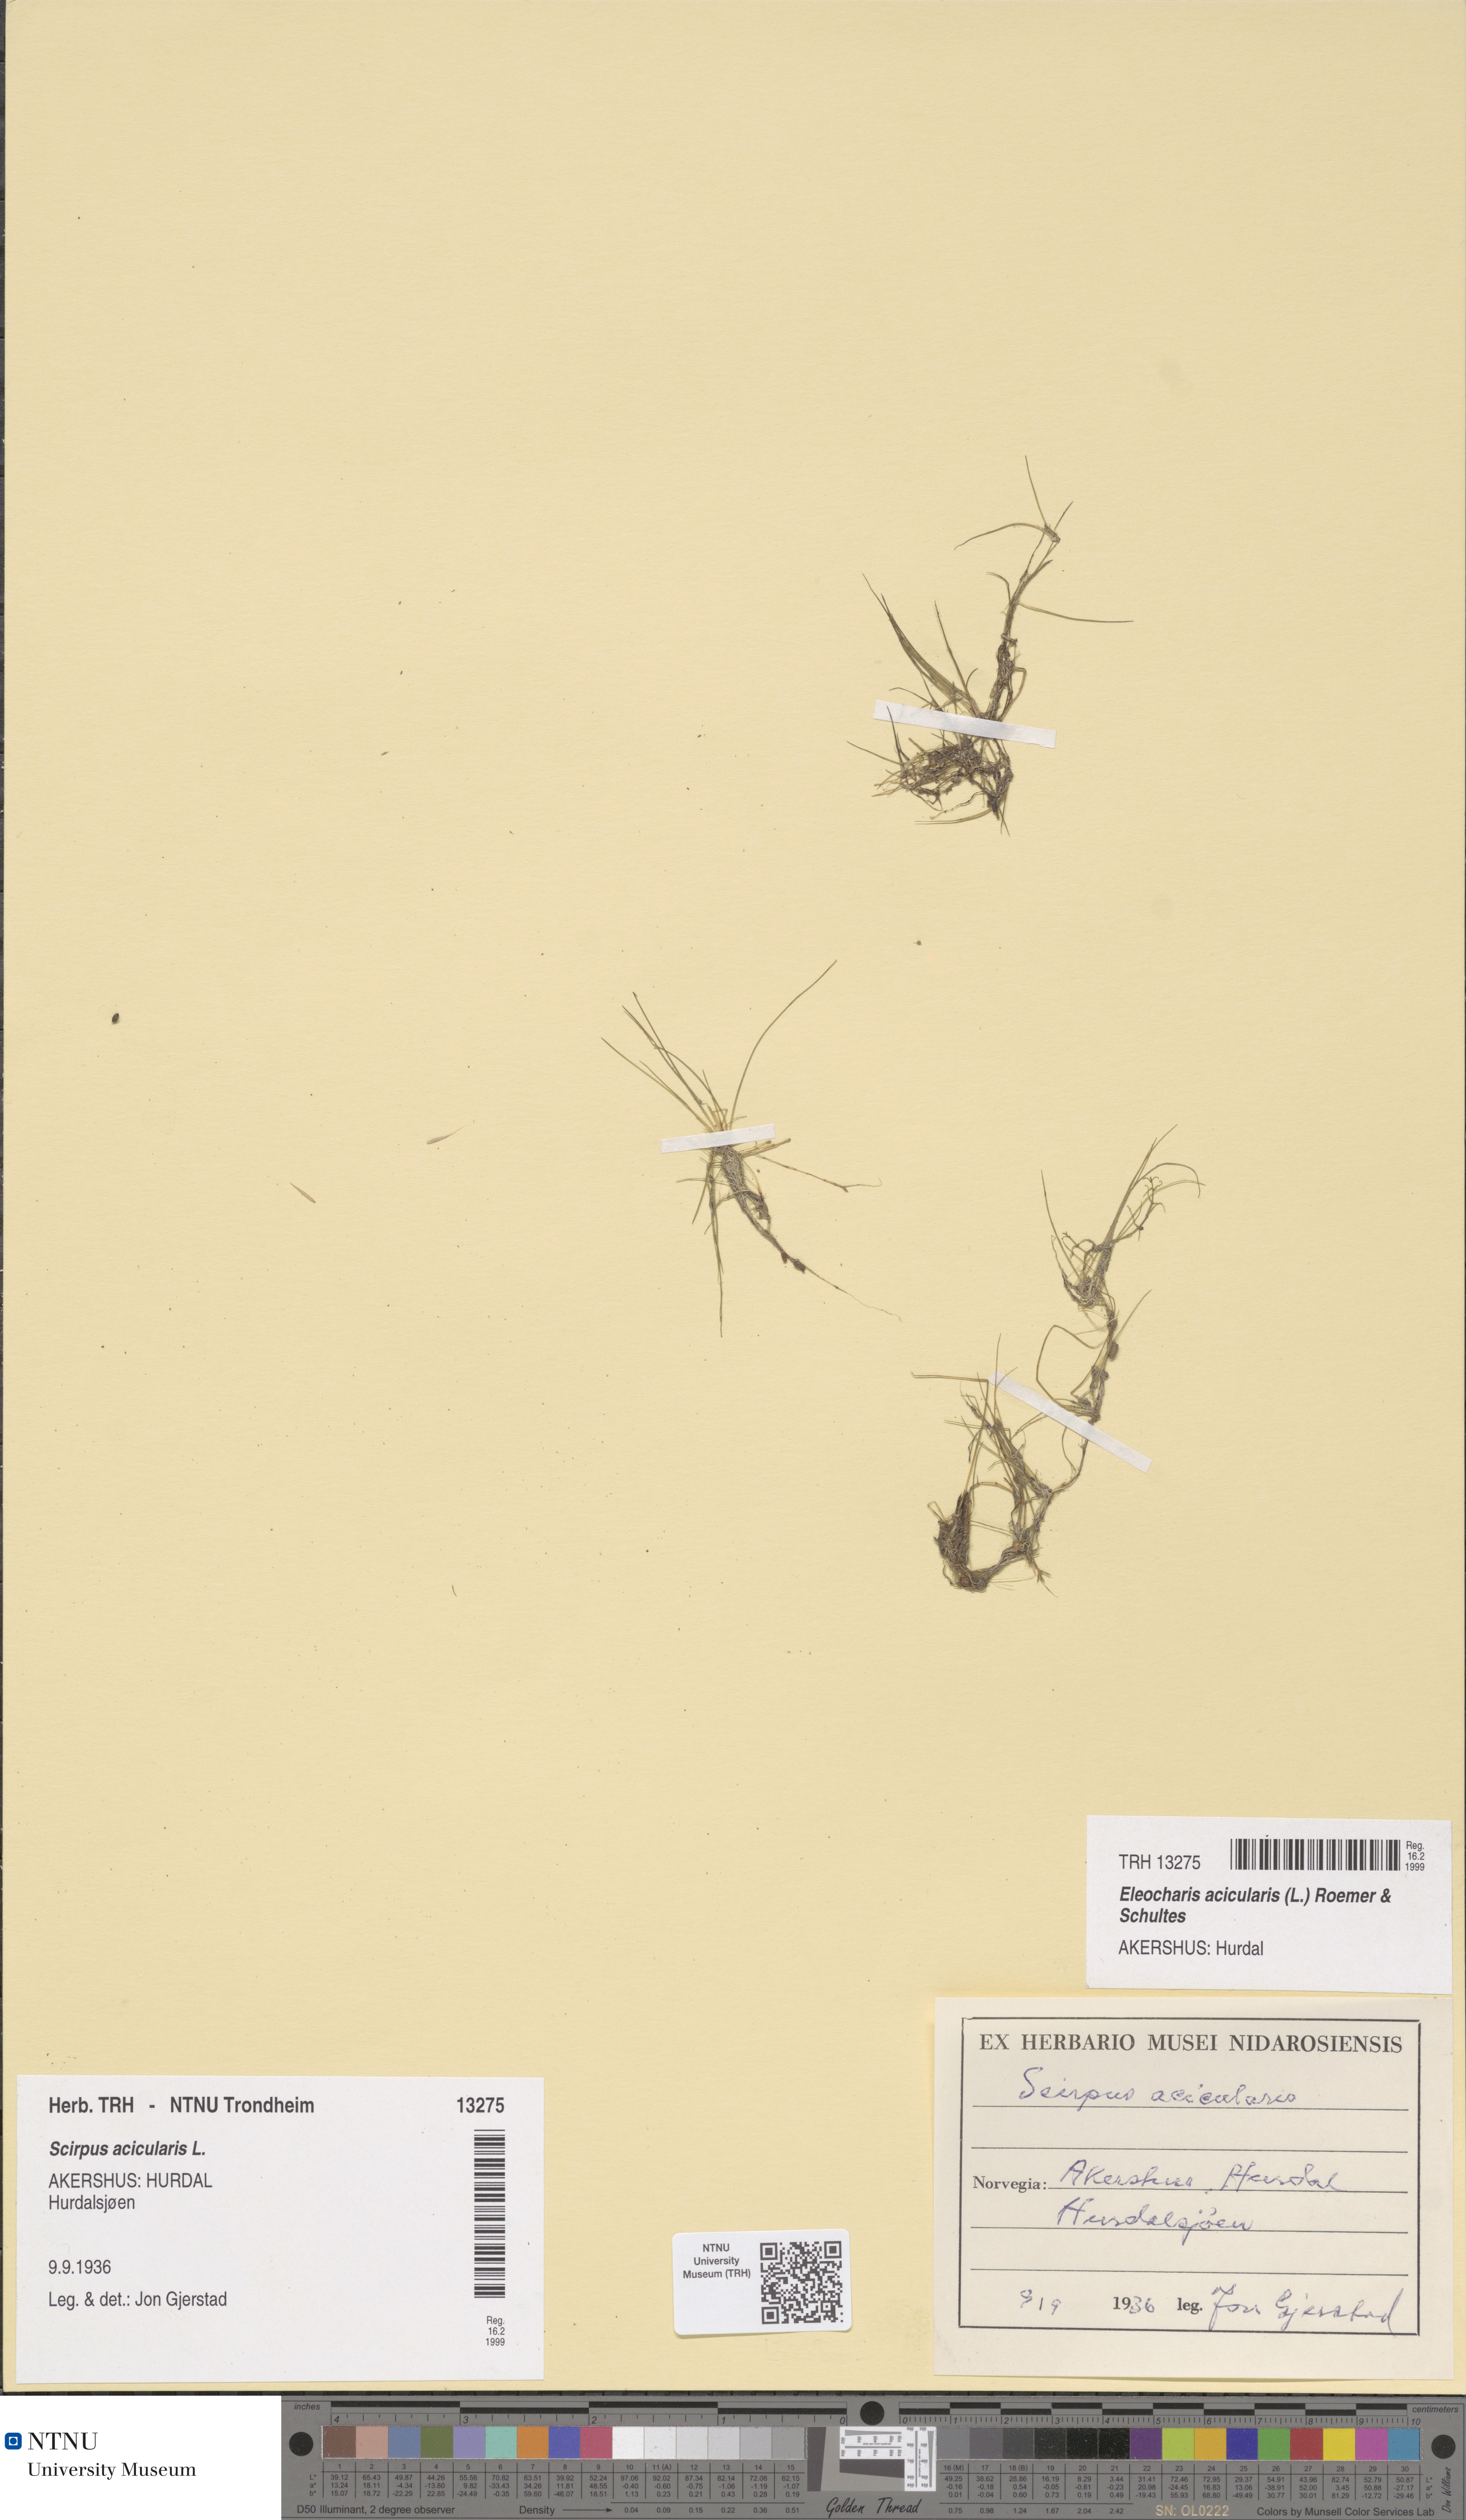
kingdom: Plantae
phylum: Tracheophyta
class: Liliopsida
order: Poales
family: Cyperaceae
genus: Eleocharis
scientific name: Eleocharis acicularis
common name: Needle spike-rush
